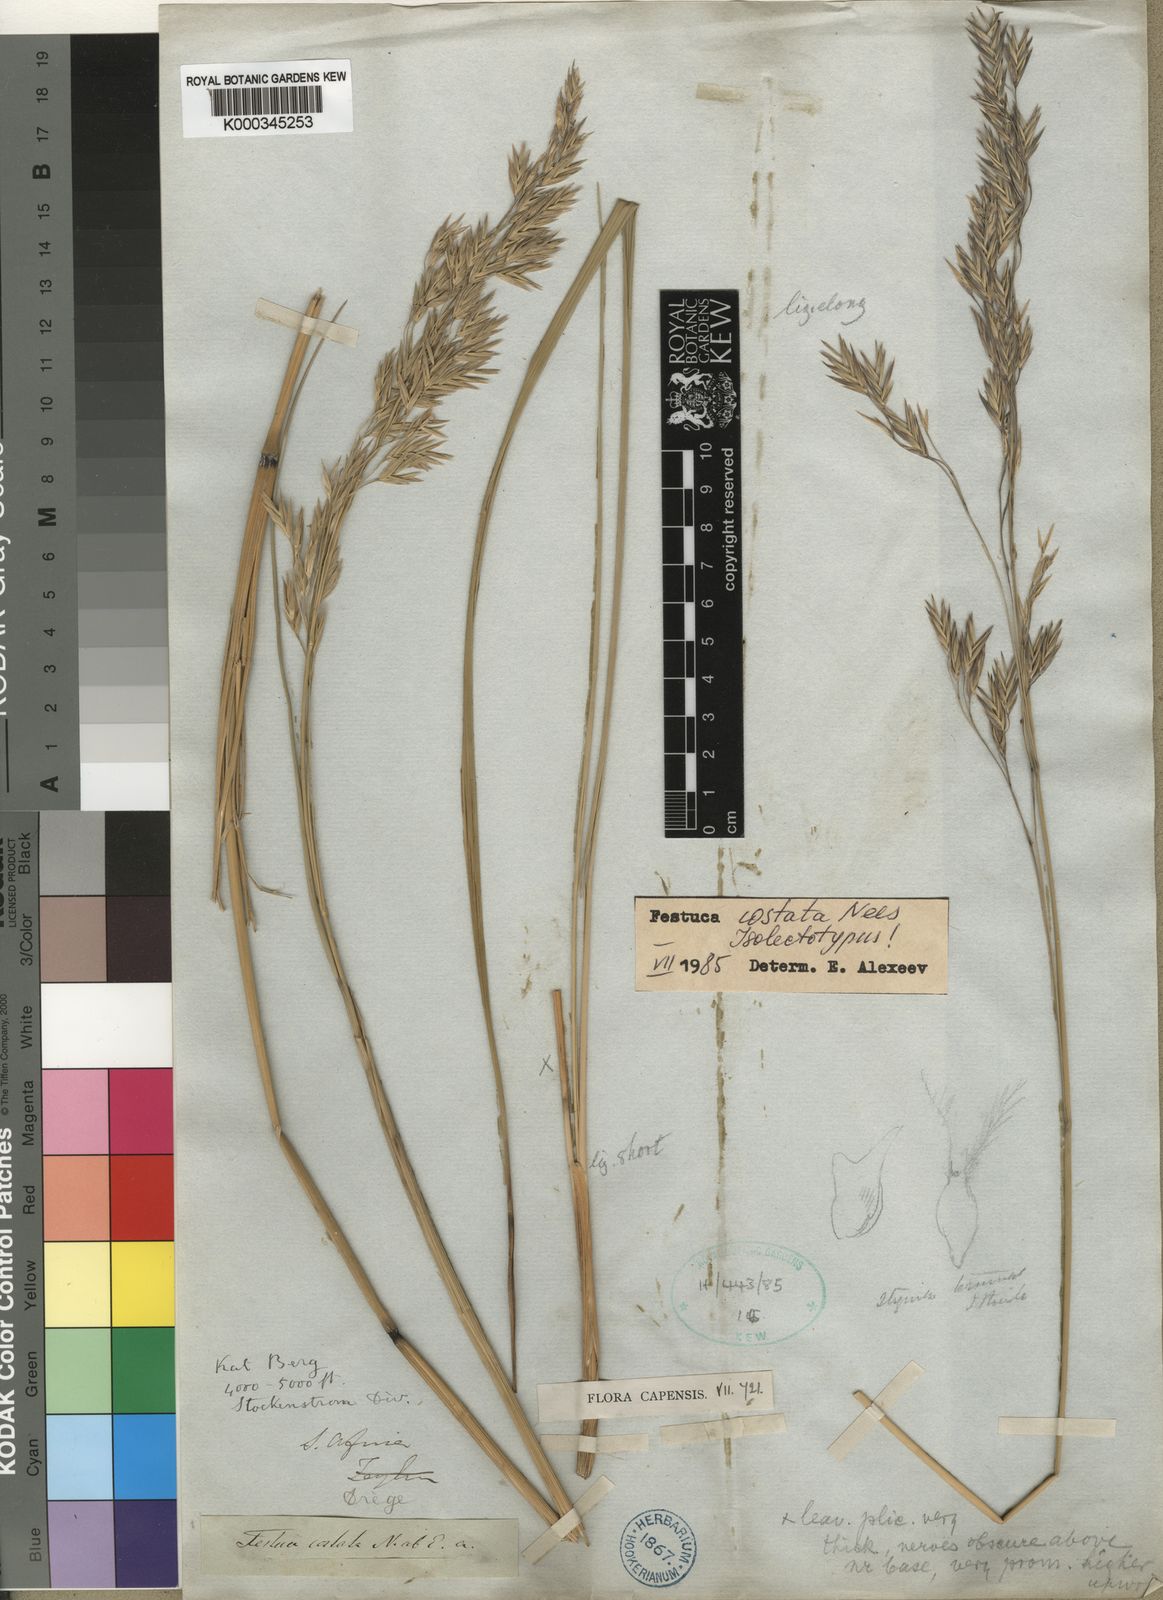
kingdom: Plantae
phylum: Tracheophyta
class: Liliopsida
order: Poales
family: Poaceae
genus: Festuca
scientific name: Festuca costata
